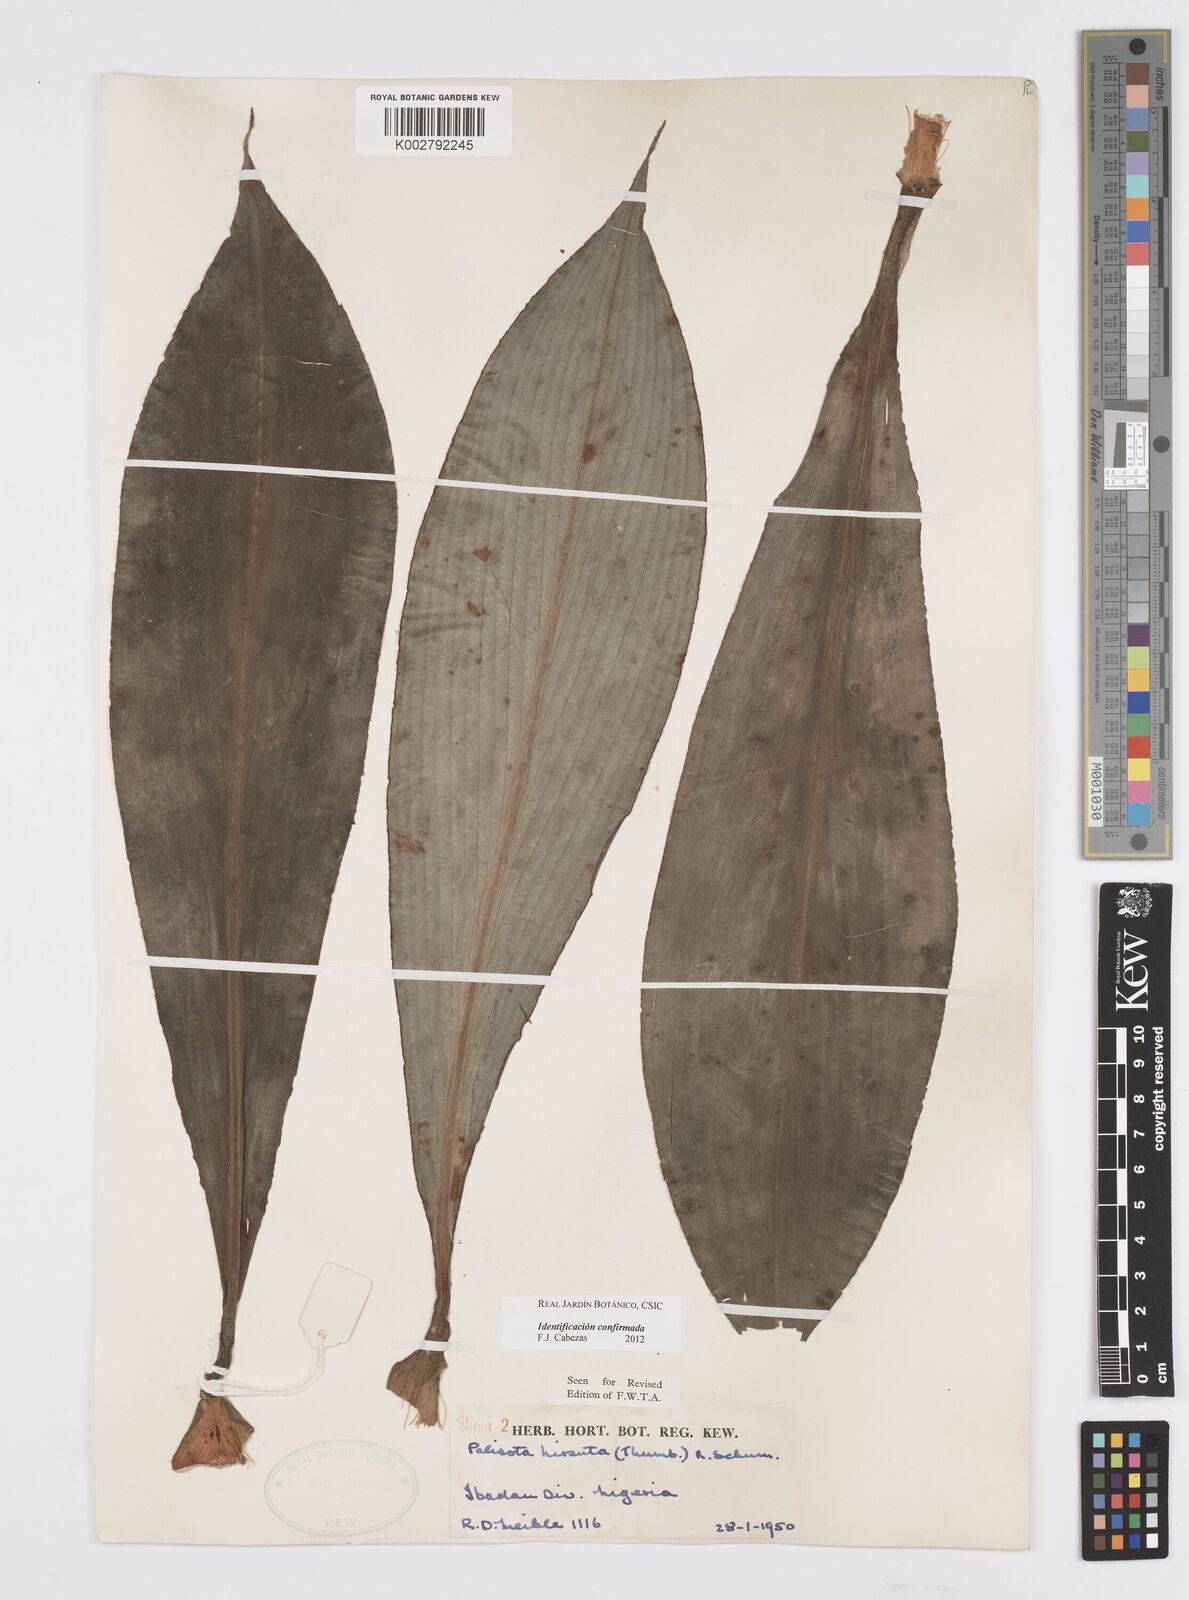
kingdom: Plantae
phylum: Tracheophyta
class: Liliopsida
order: Commelinales
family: Commelinaceae
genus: Palisota
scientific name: Palisota hirsuta
